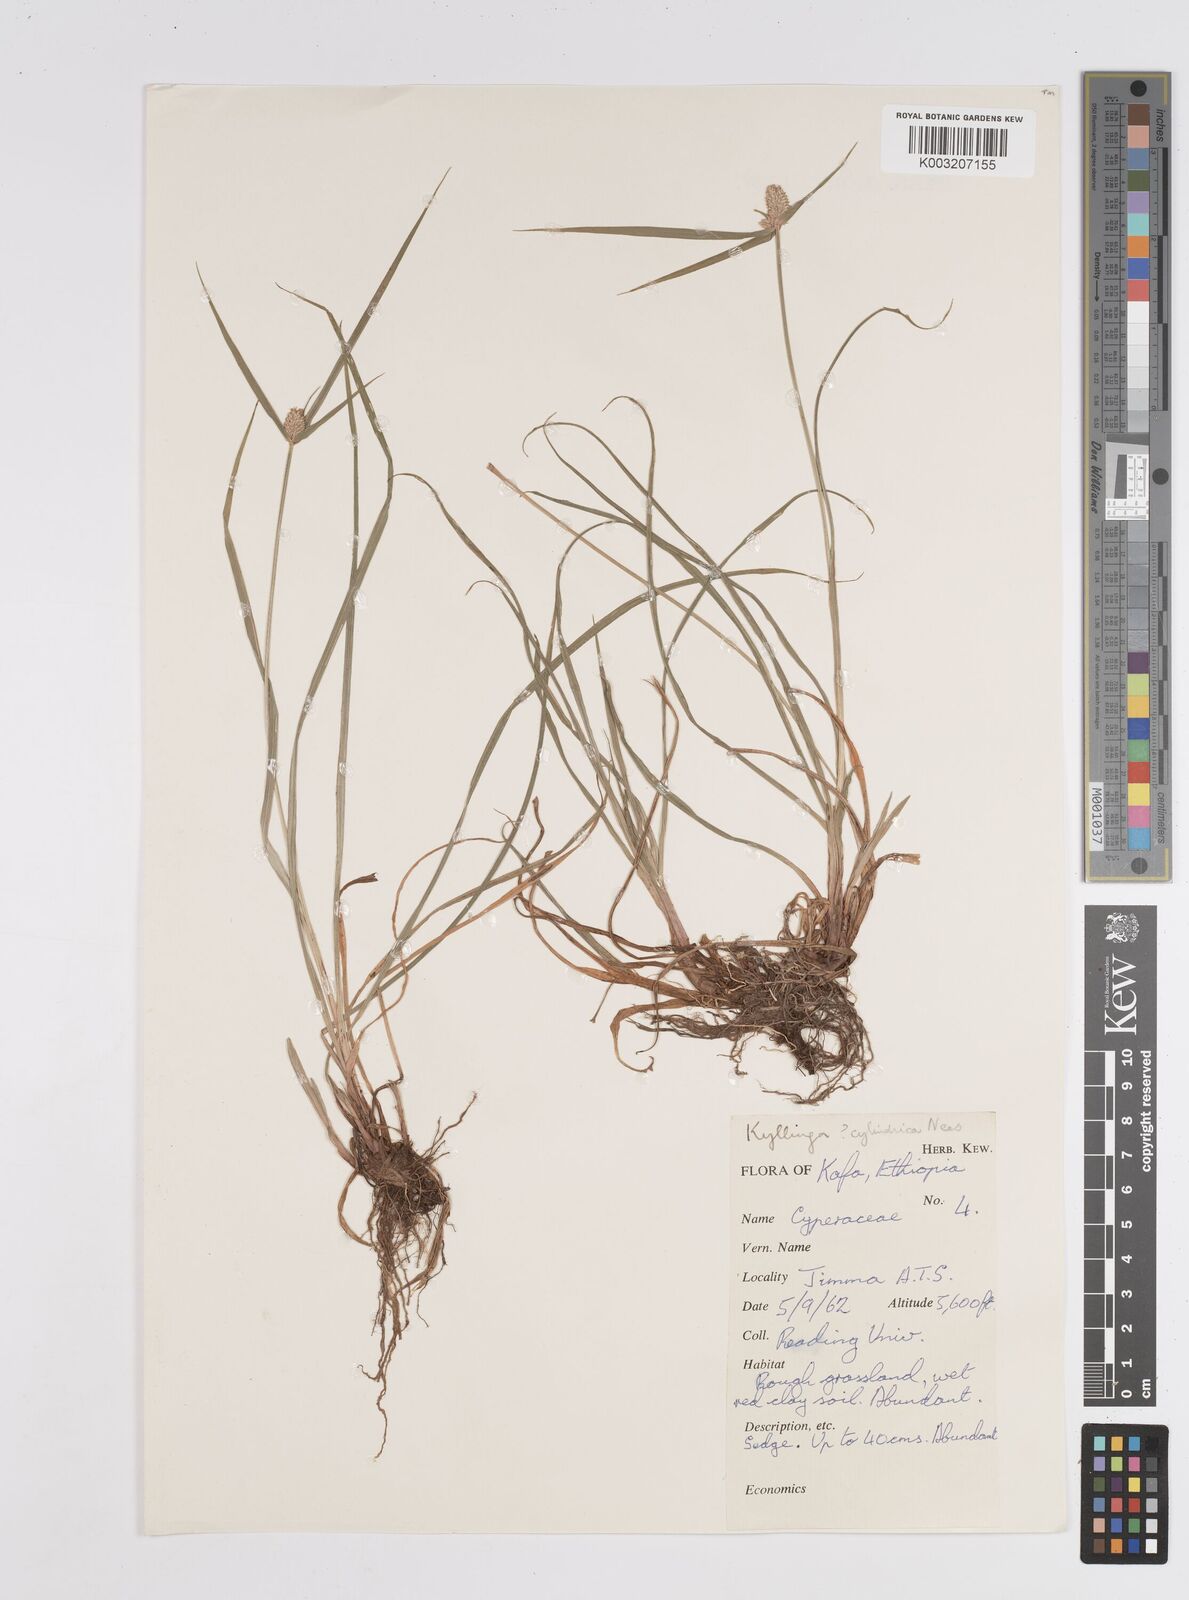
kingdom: Plantae
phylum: Tracheophyta
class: Liliopsida
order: Poales
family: Cyperaceae
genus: Cyperus
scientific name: Cyperus
